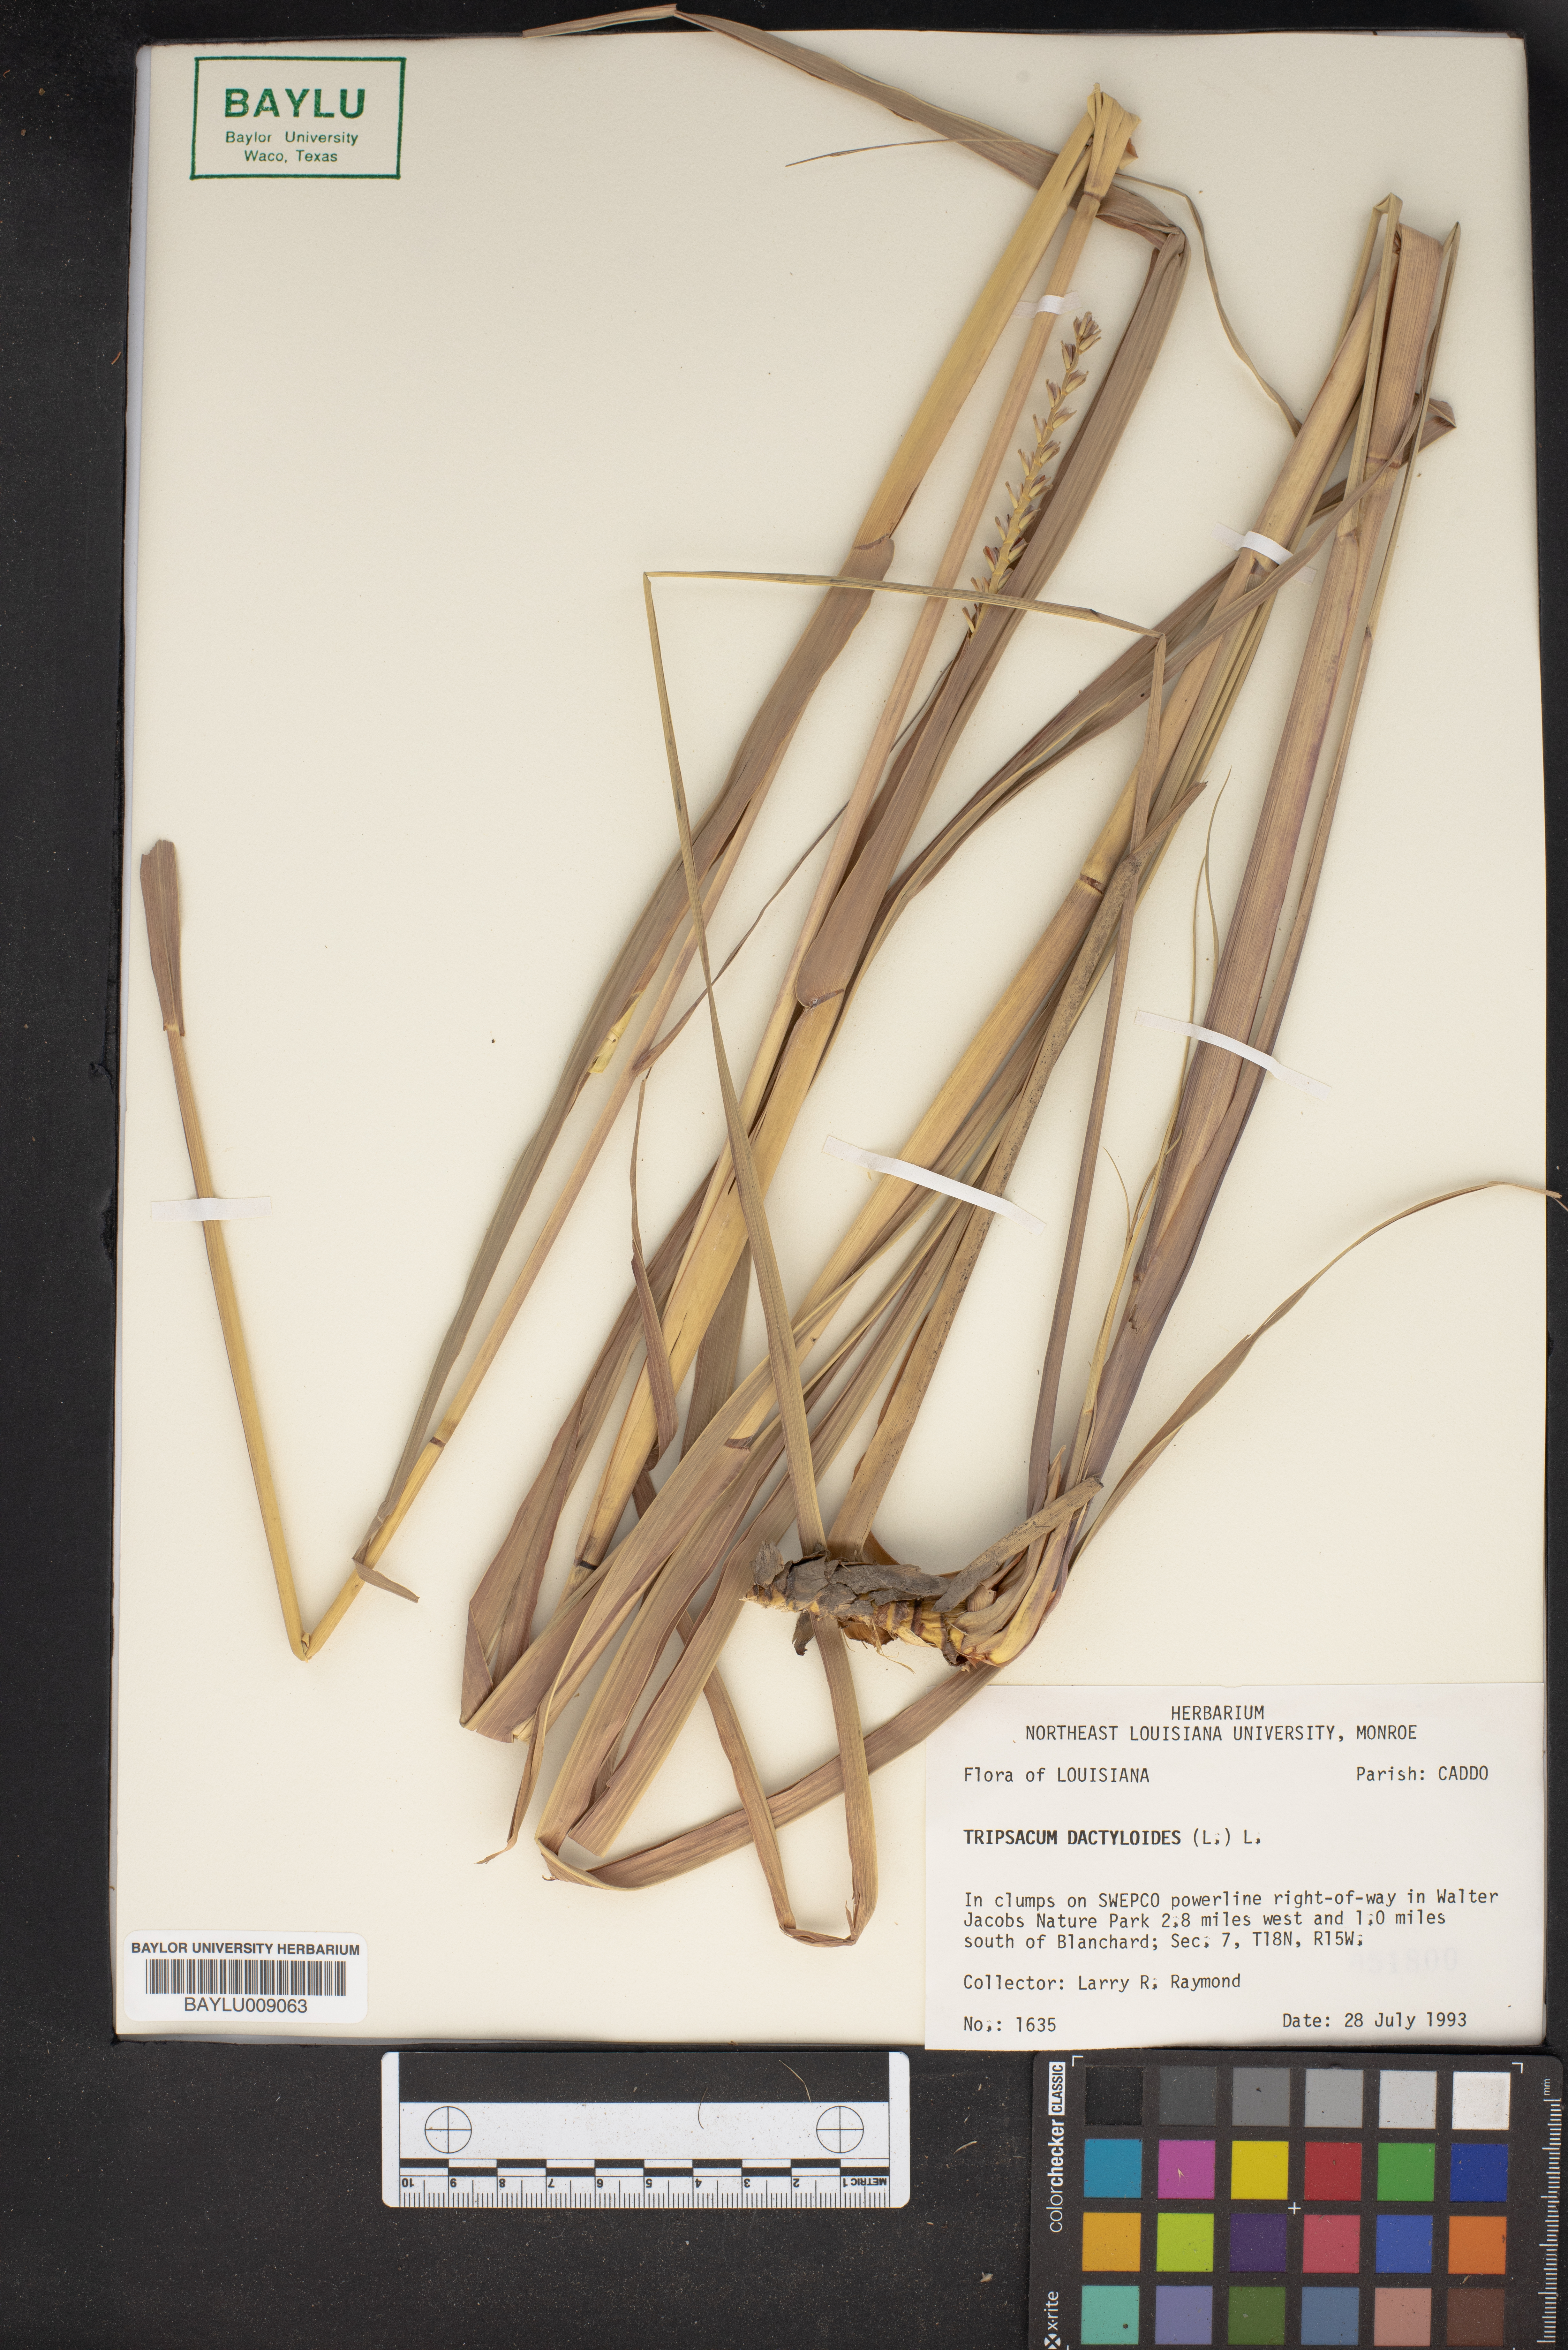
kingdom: Plantae
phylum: Tracheophyta
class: Liliopsida
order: Poales
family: Poaceae
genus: Tripsacum
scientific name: Tripsacum dactyloides
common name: Buffalo-grass
